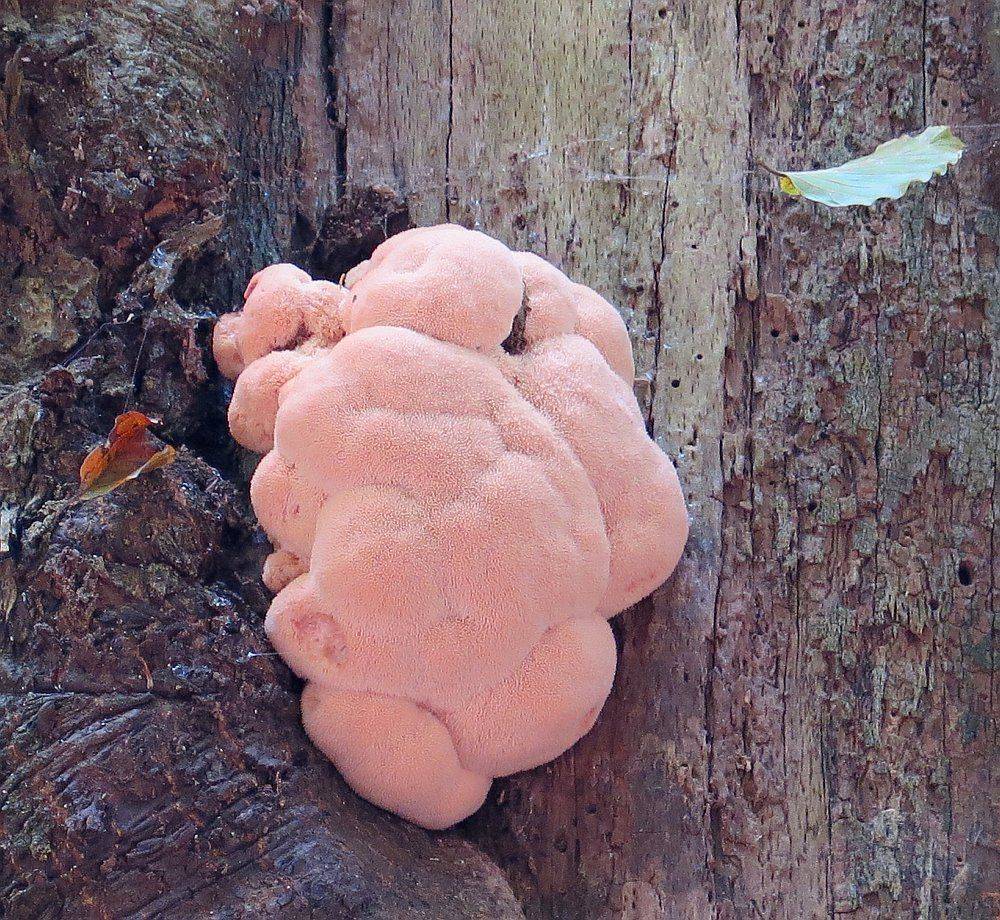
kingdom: Fungi
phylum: Basidiomycota
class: Agaricomycetes
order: Russulales
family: Hericiaceae
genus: Hericium
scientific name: Hericium erinaceus
